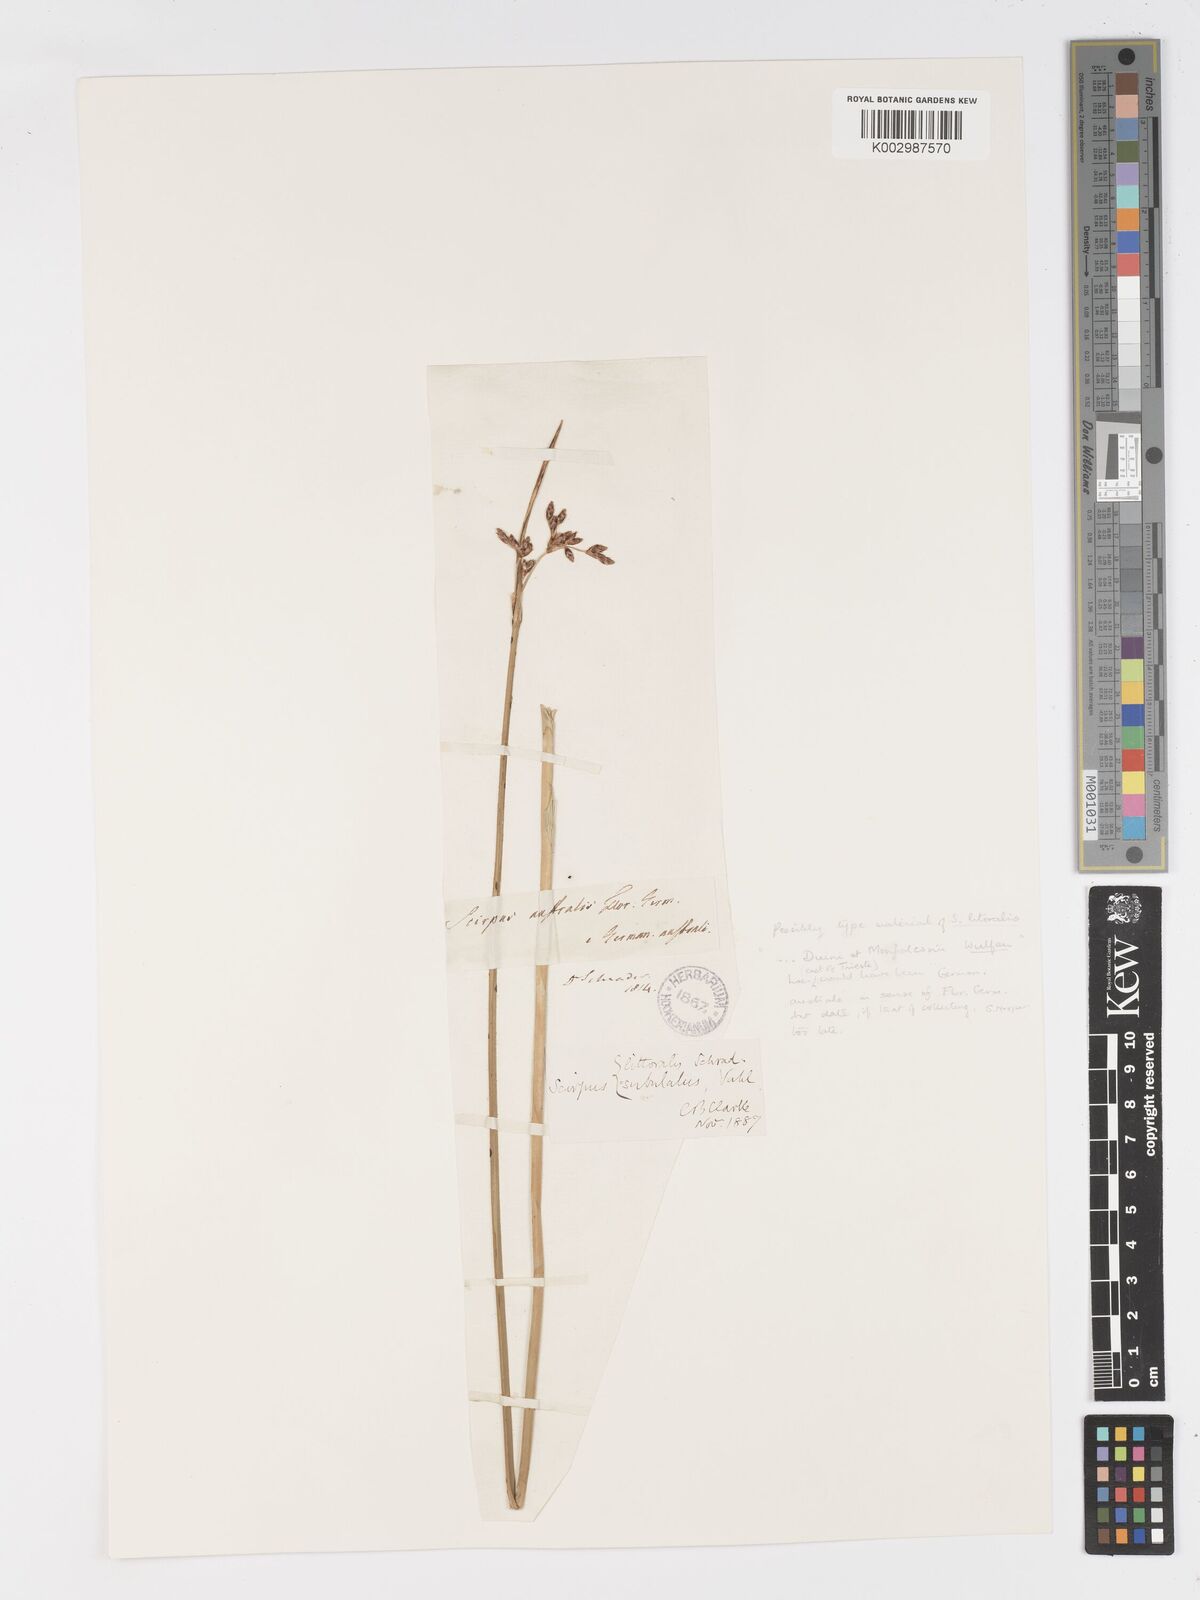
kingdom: Plantae
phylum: Tracheophyta
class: Liliopsida
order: Poales
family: Cyperaceae
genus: Schoenoplectus
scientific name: Schoenoplectus litoralis
